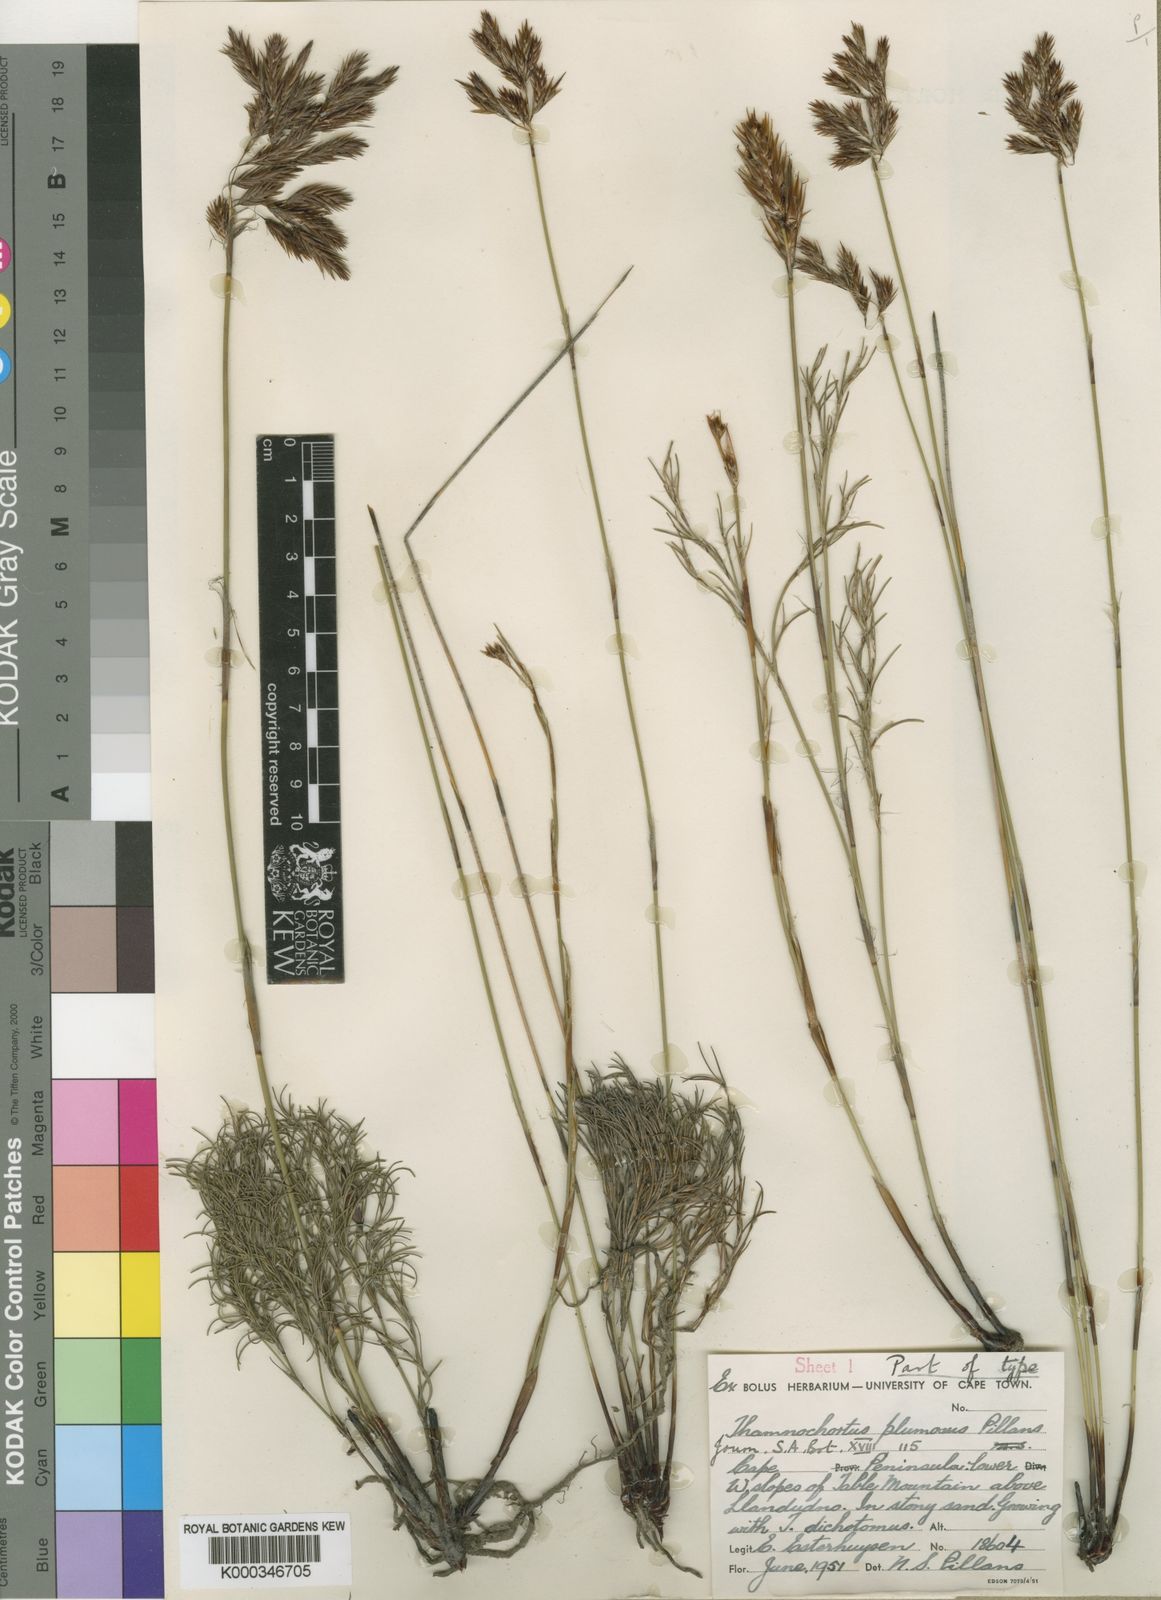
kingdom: Plantae
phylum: Tracheophyta
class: Liliopsida
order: Poales
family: Restionaceae
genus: Thamnochortus
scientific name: Thamnochortus guthrieae
